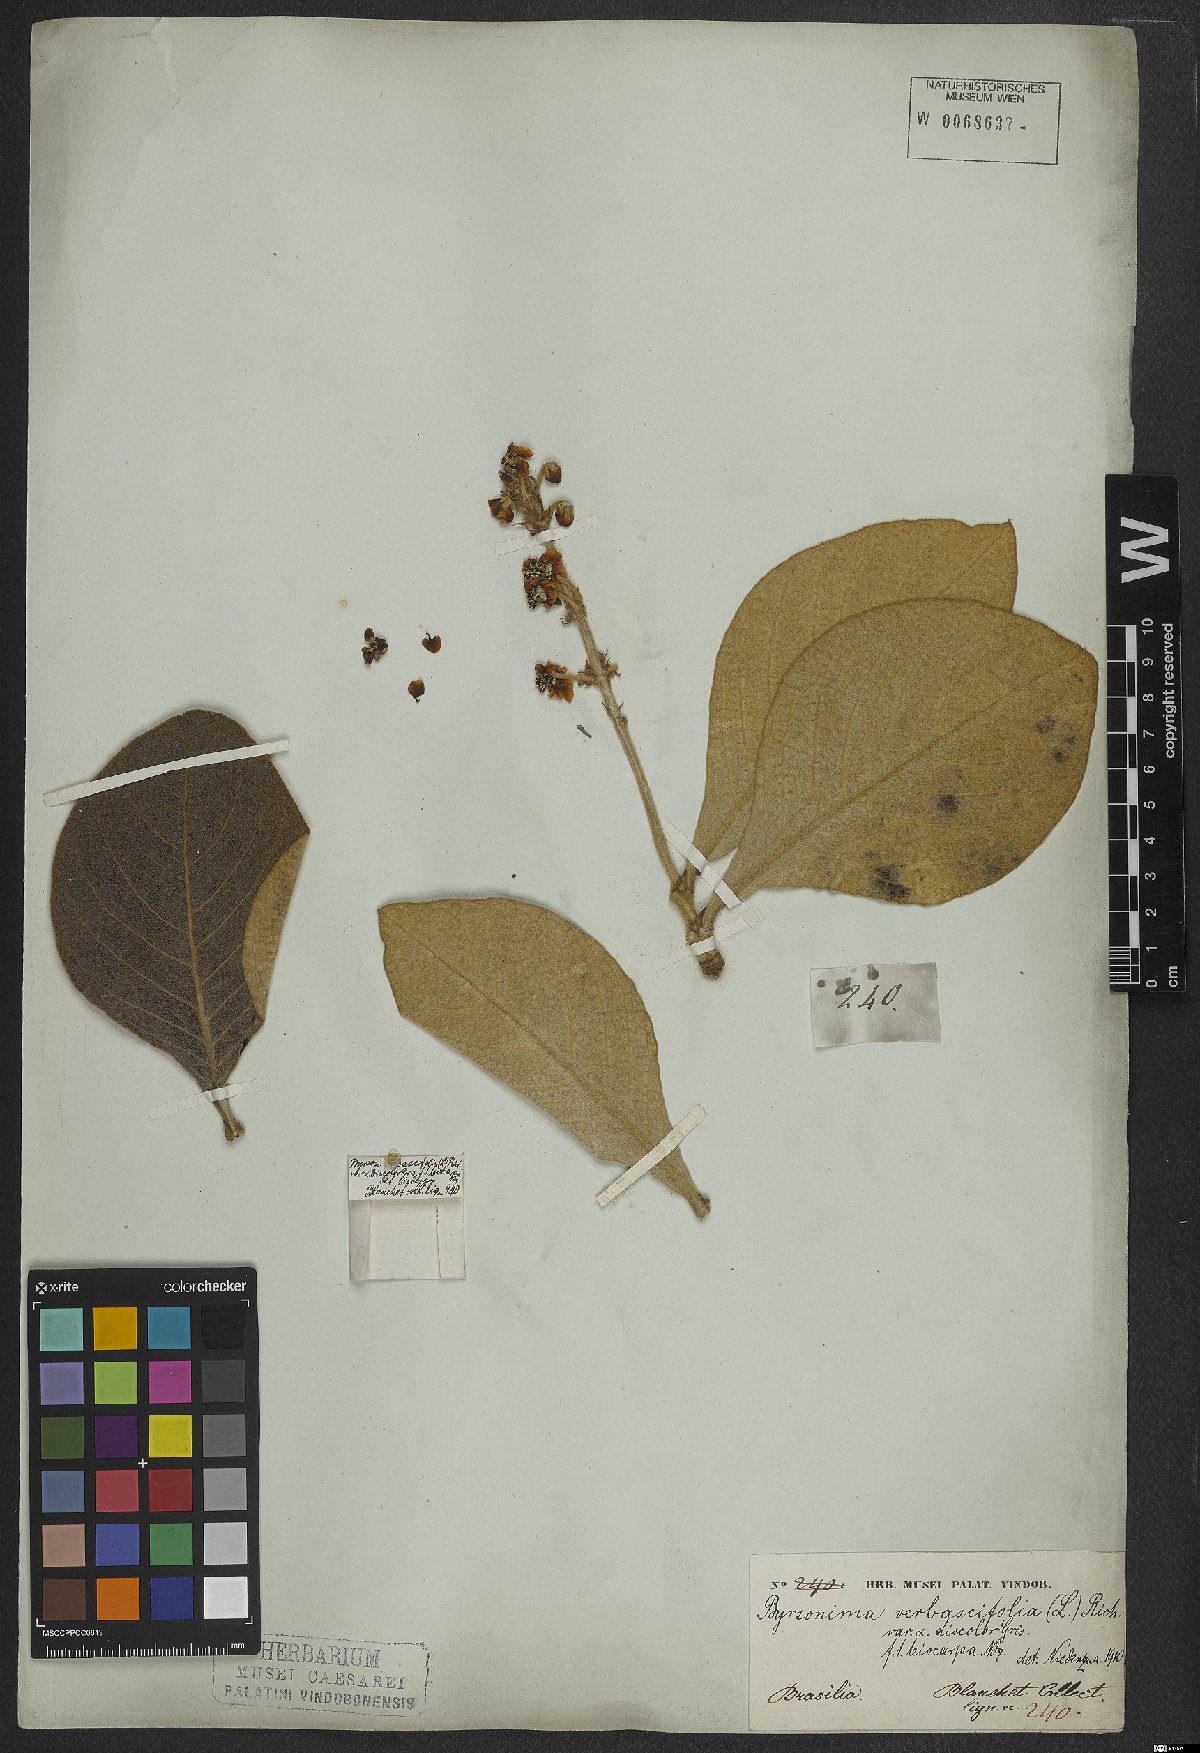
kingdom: Plantae
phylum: Tracheophyta
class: Magnoliopsida
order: Malpighiales
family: Malpighiaceae
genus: Byrsonima
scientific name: Byrsonima verbascifolia
